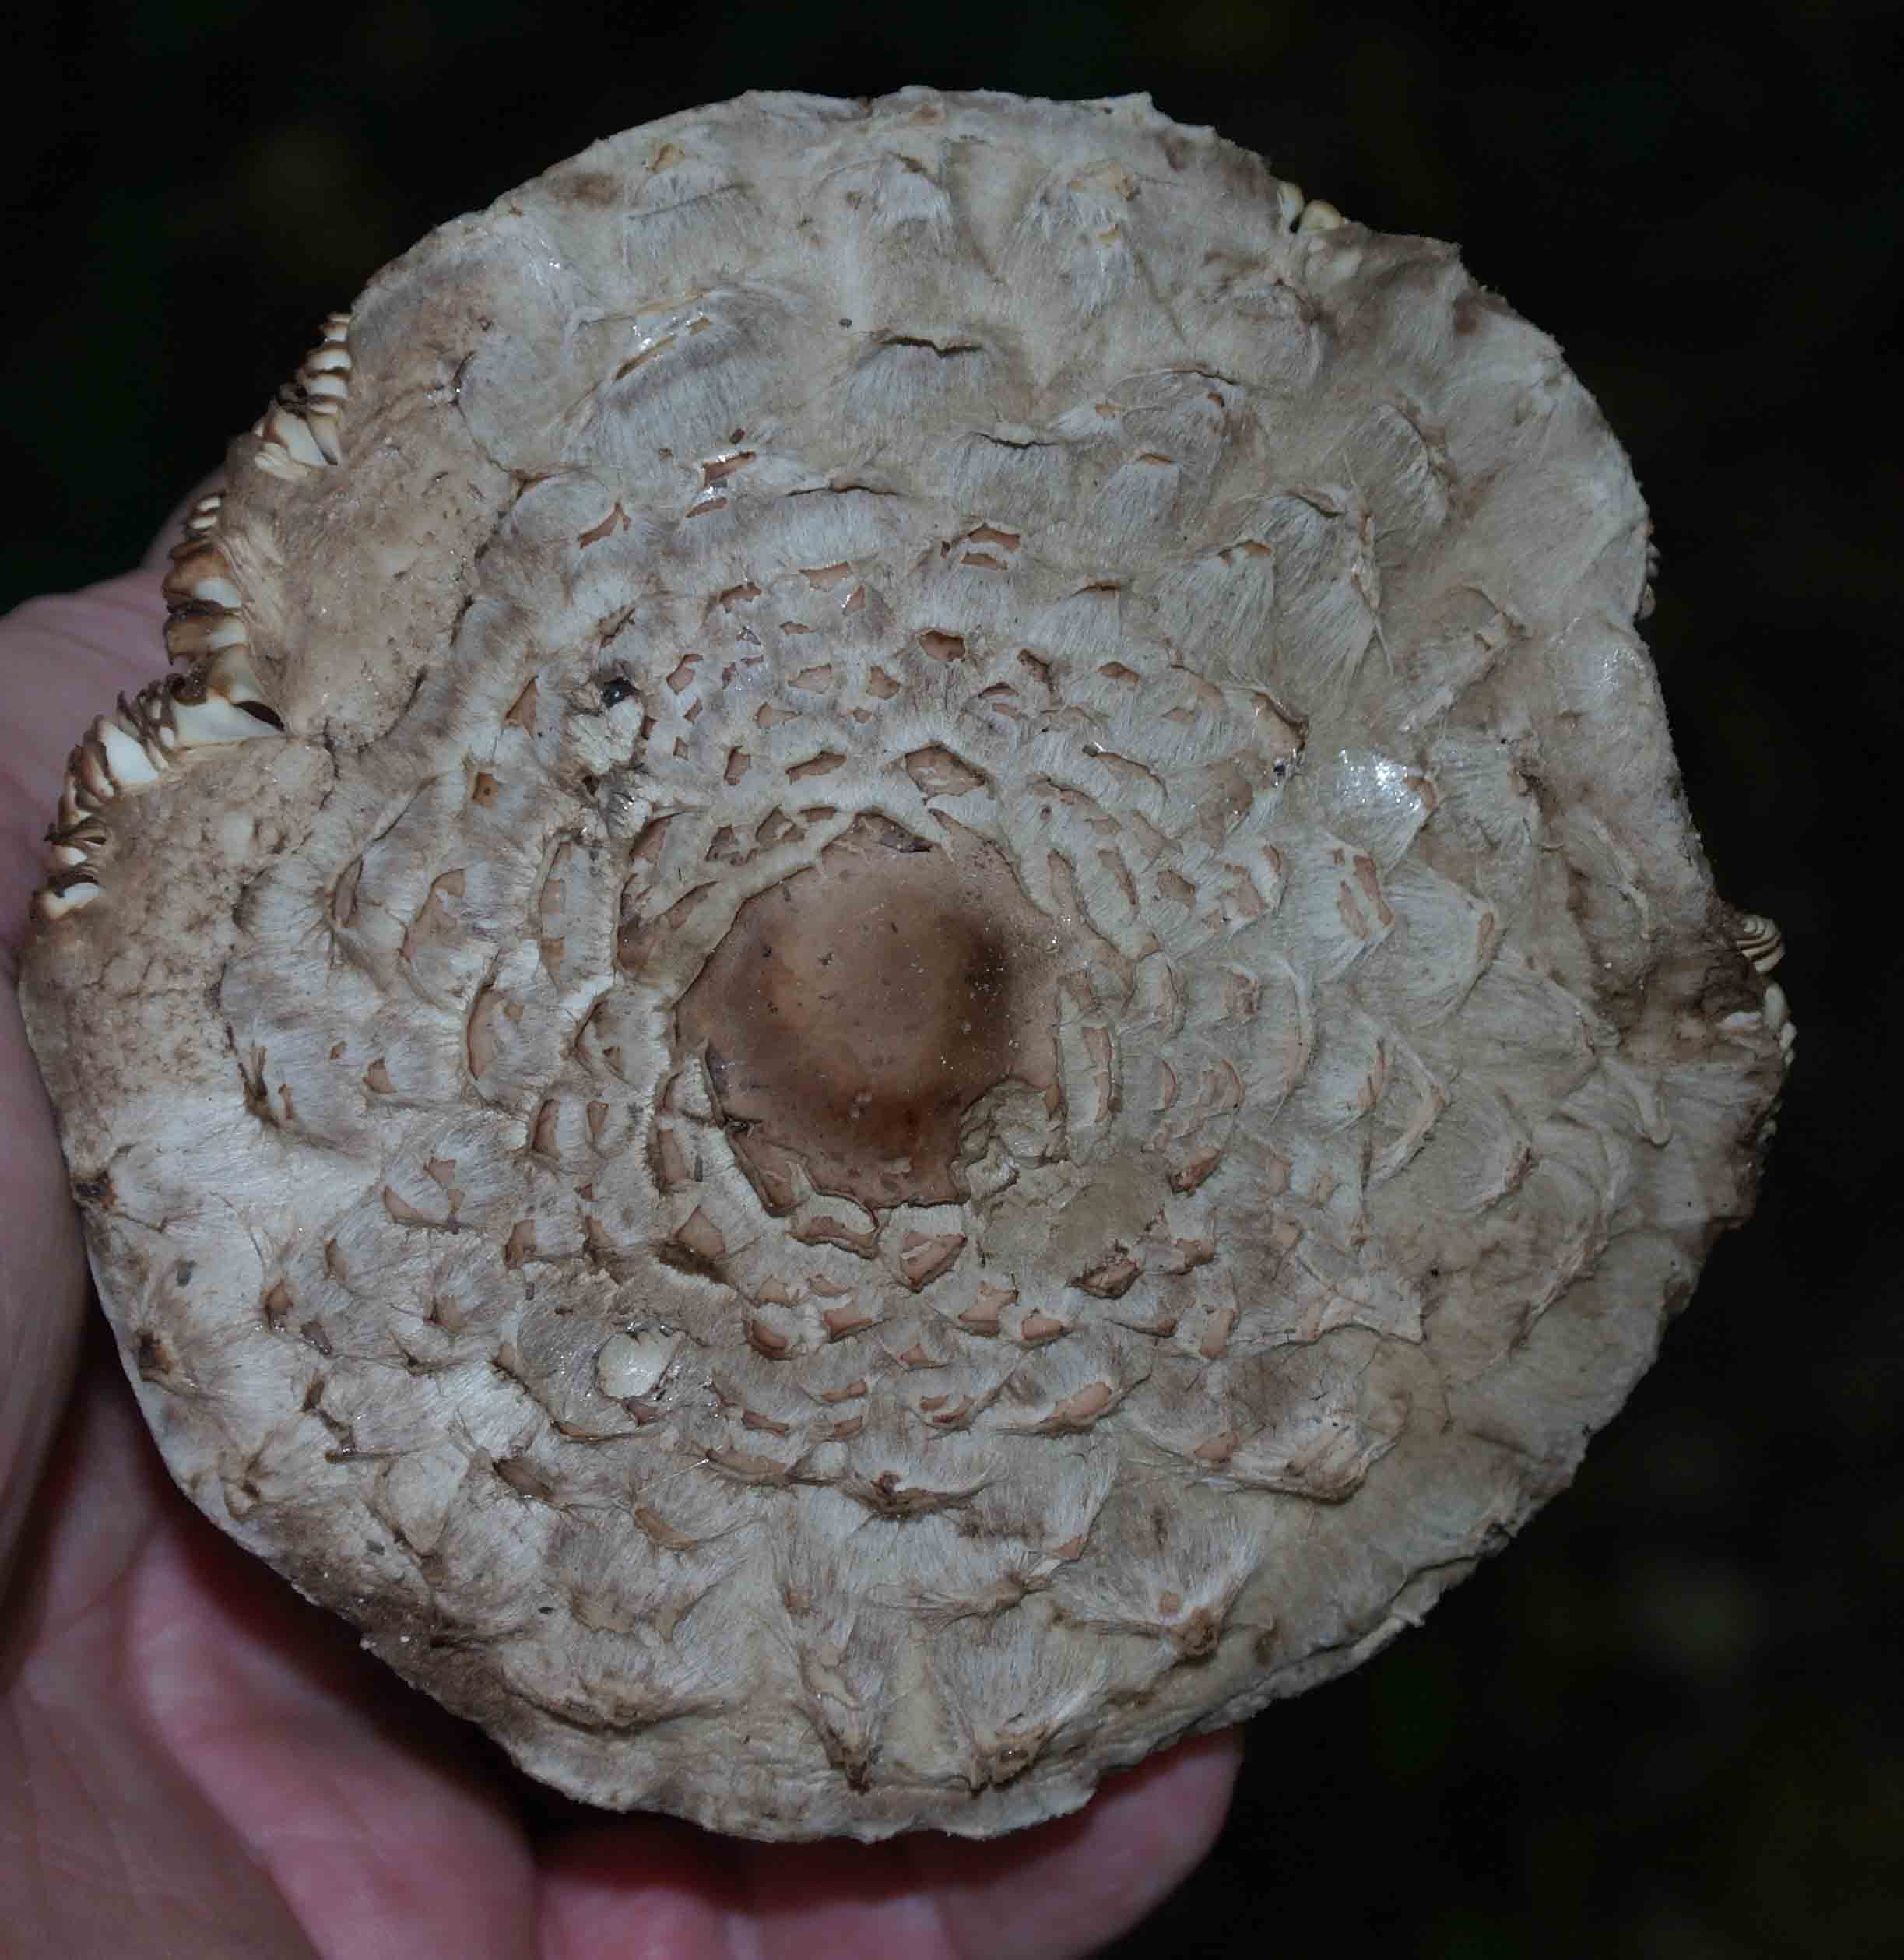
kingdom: Fungi
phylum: Basidiomycota
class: Agaricomycetes
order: Agaricales
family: Agaricaceae
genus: Chlorophyllum
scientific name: Chlorophyllum olivieri
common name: almindelig rabarberhat
